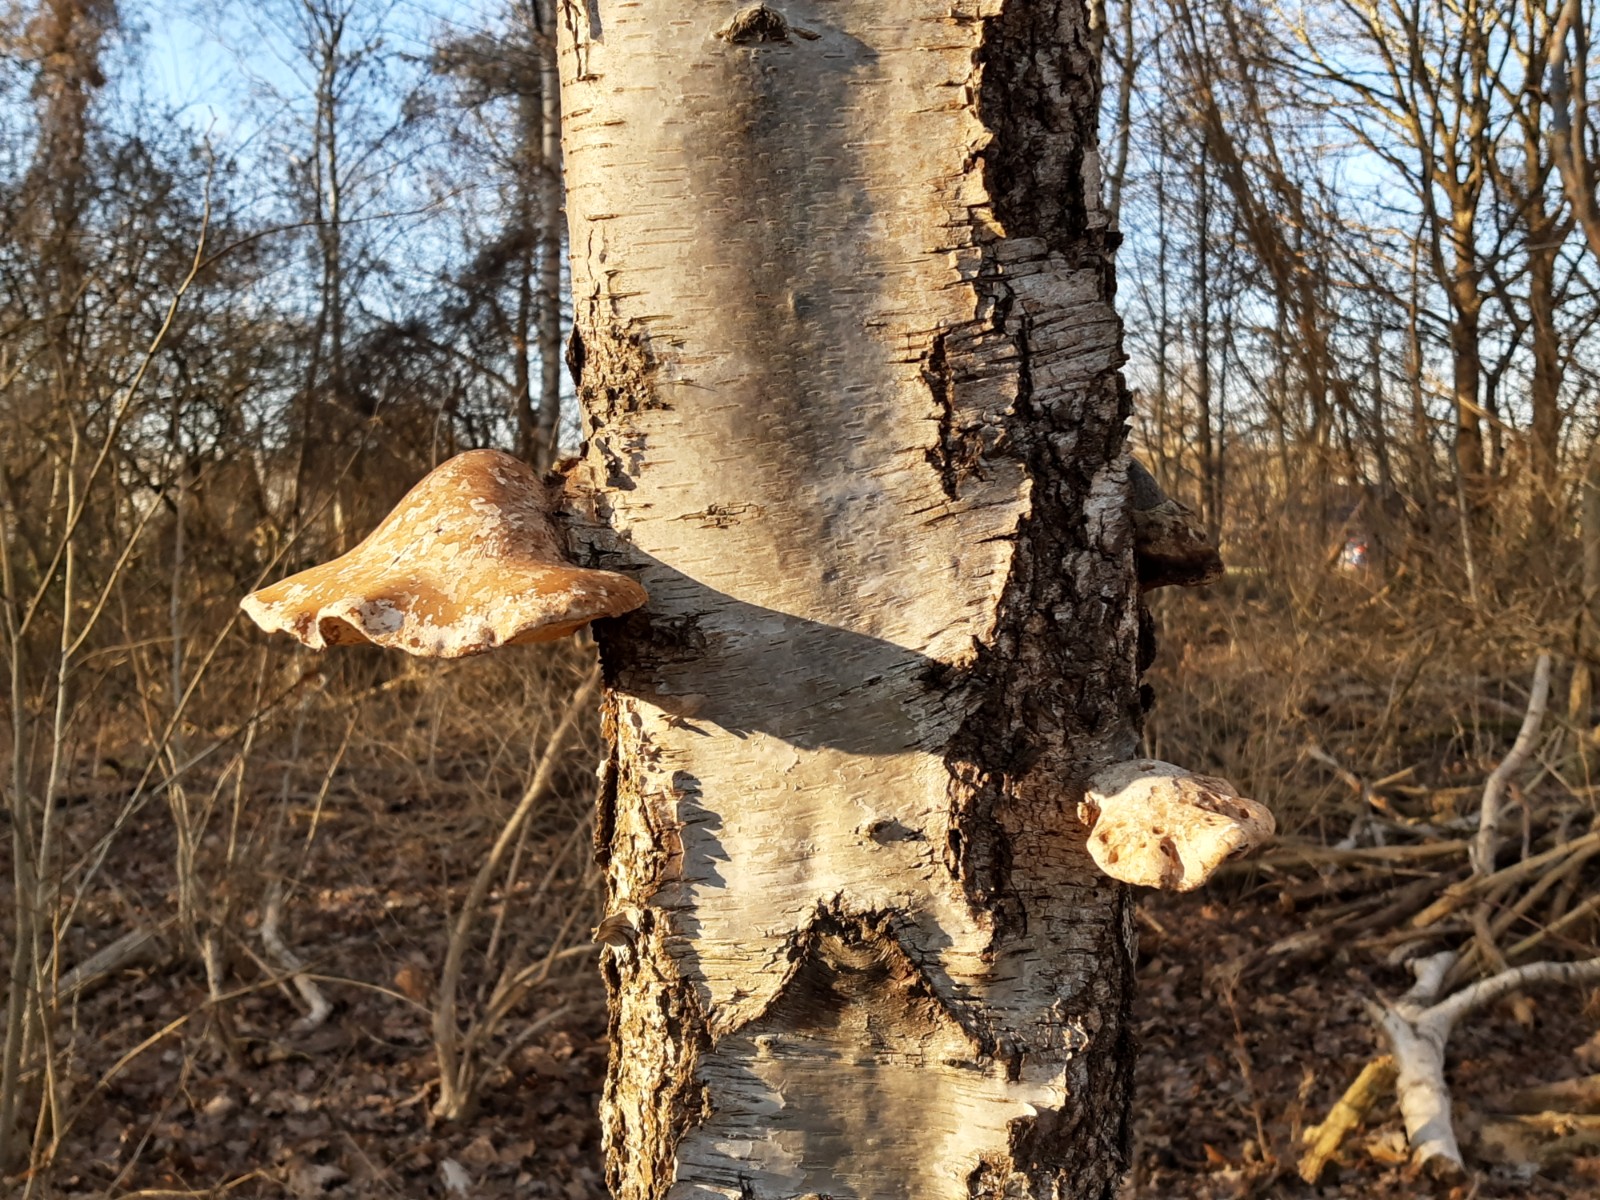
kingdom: Fungi
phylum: Basidiomycota
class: Agaricomycetes
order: Polyporales
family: Fomitopsidaceae
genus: Fomitopsis
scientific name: Fomitopsis betulina
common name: birkeporesvamp
